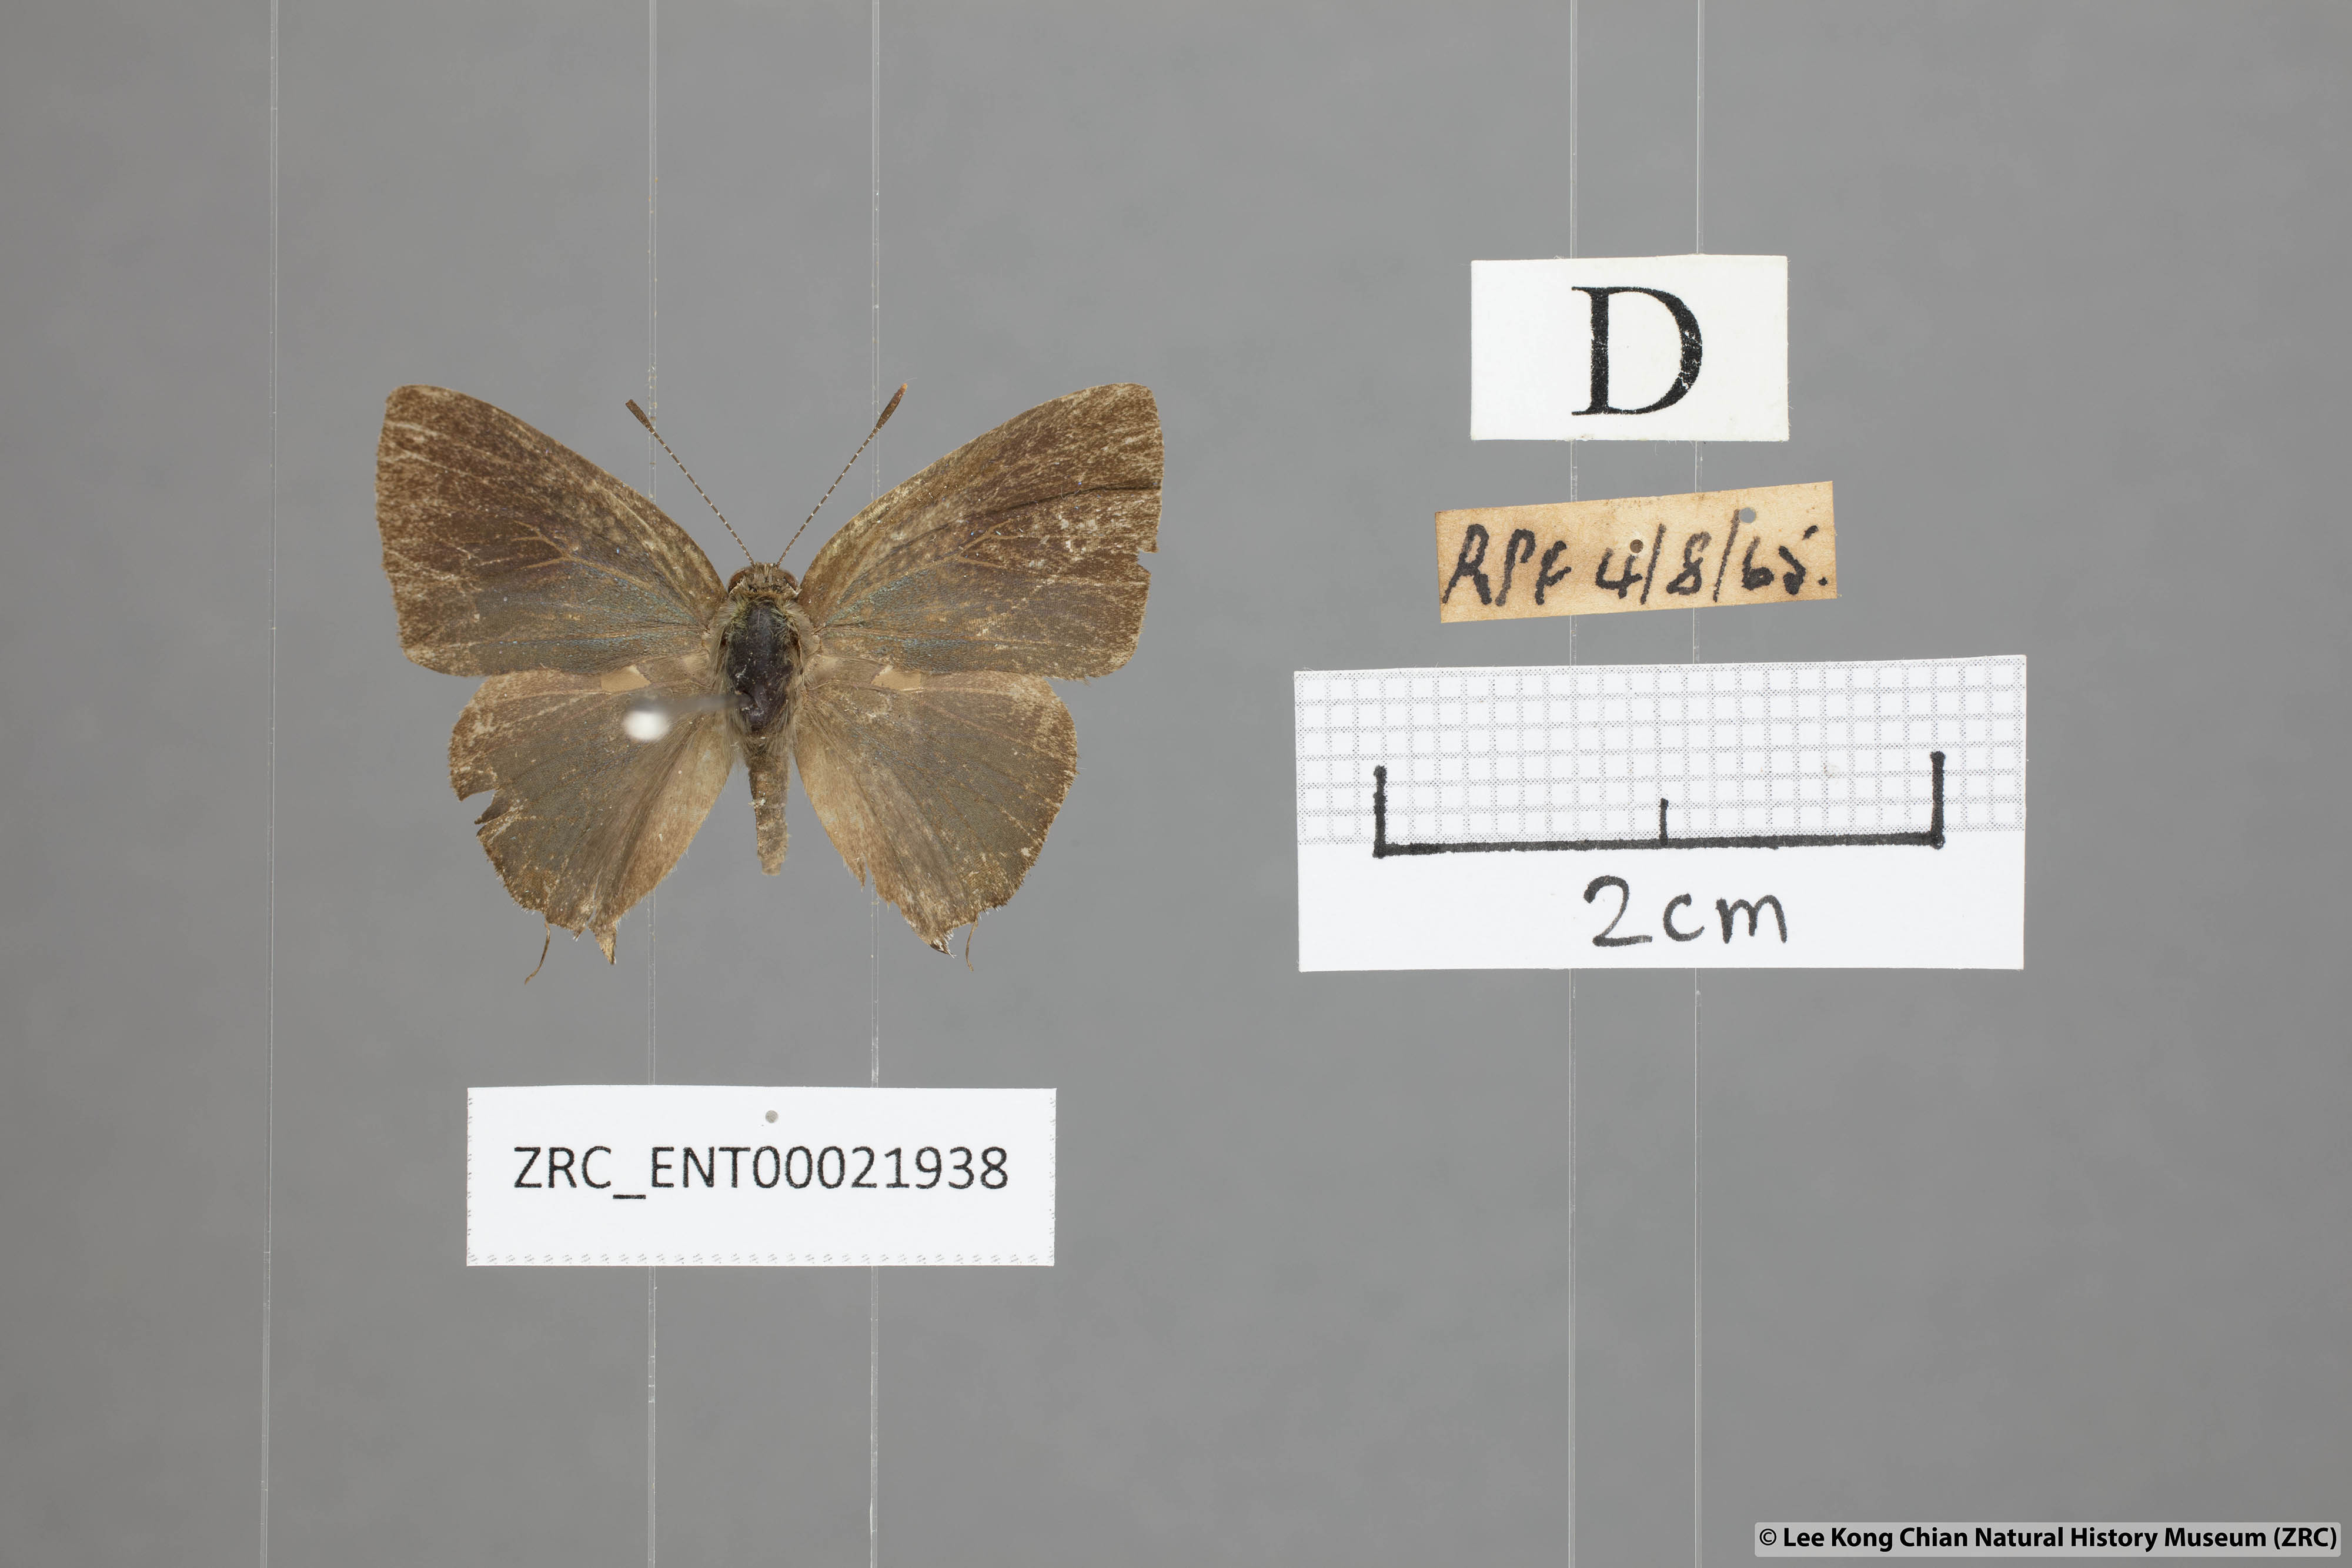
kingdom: Animalia
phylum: Arthropoda
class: Insecta
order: Lepidoptera
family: Lycaenidae
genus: Rapala
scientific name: Rapala varuna
